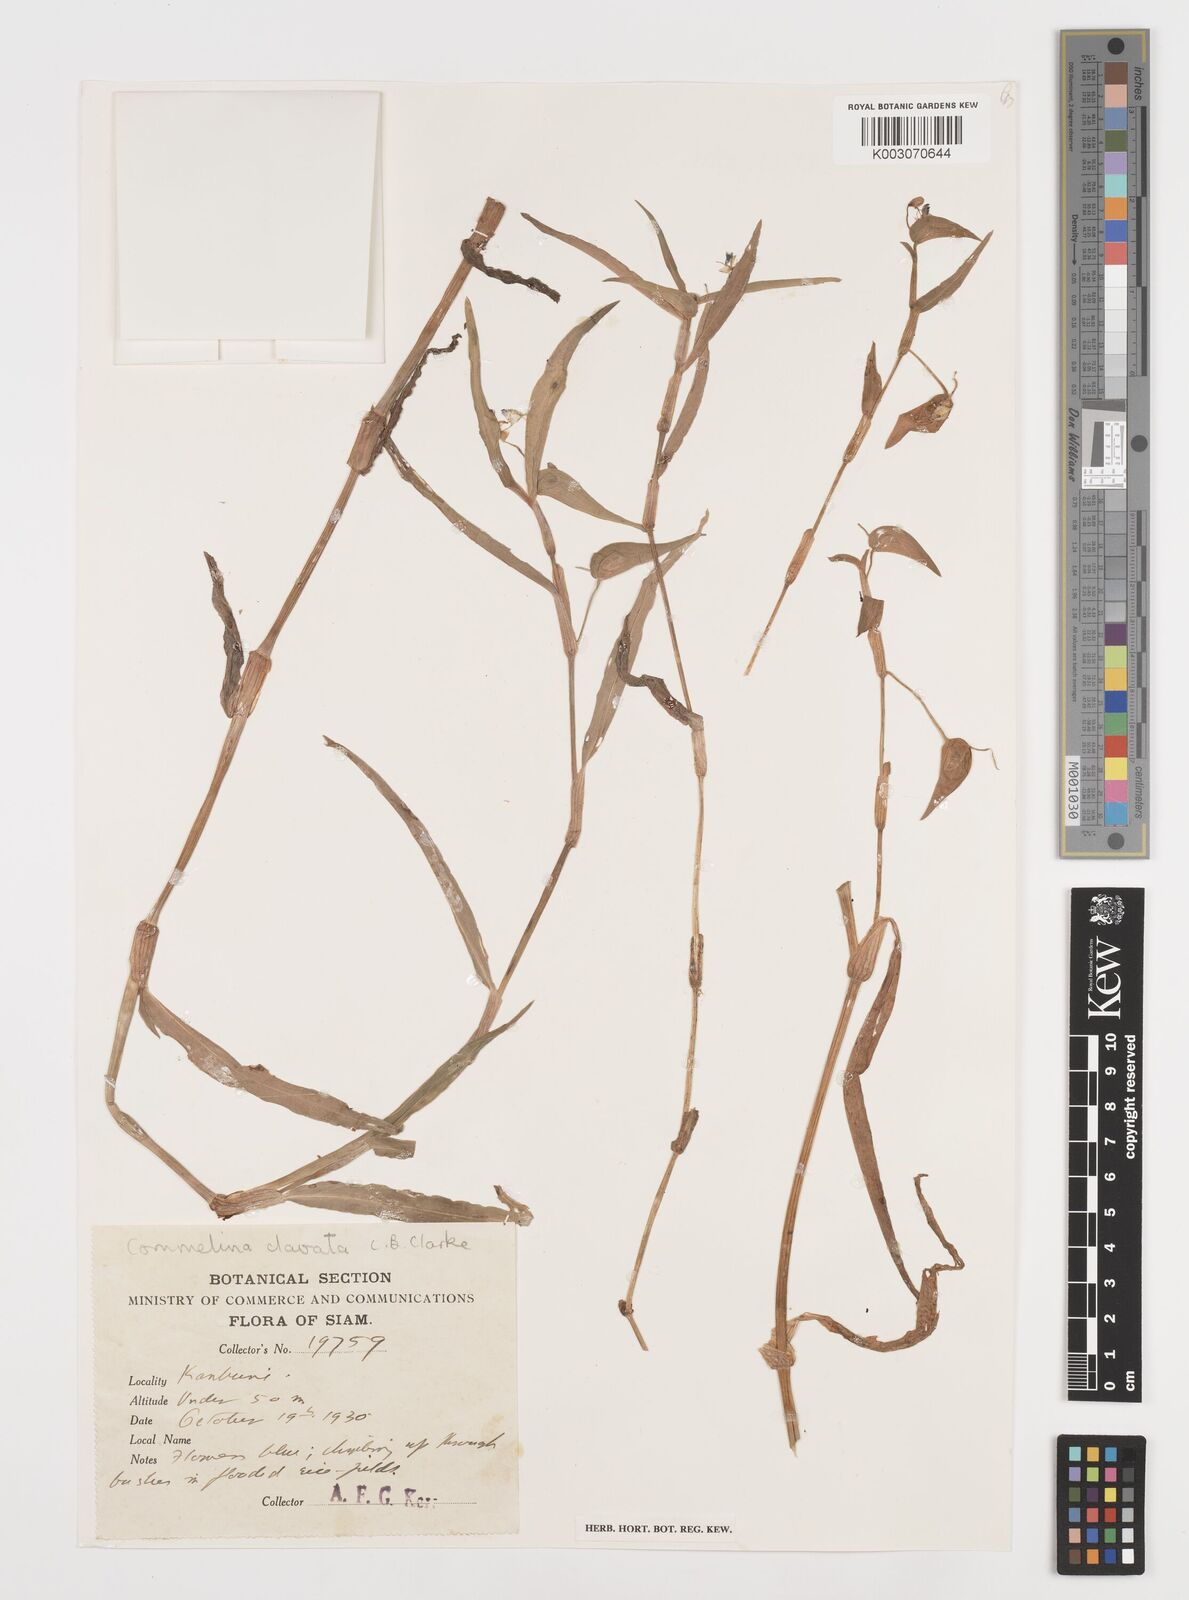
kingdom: Plantae
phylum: Tracheophyta
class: Liliopsida
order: Commelinales
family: Commelinaceae
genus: Commelina
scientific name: Commelina
